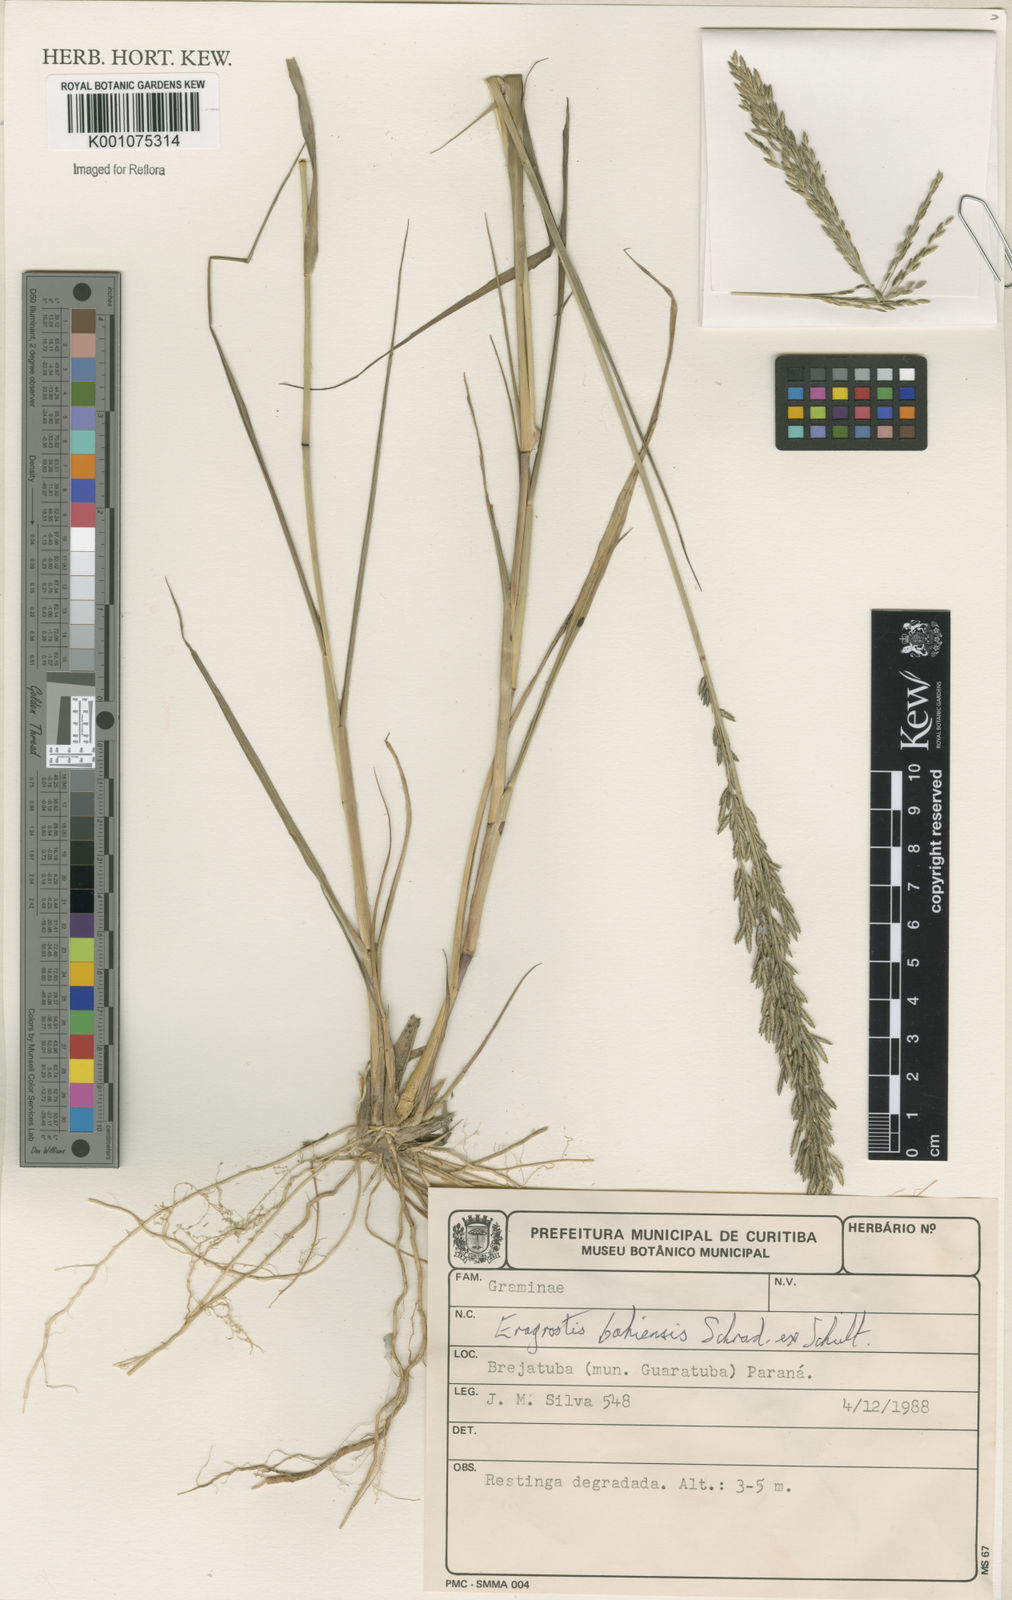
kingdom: Plantae
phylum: Tracheophyta
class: Liliopsida
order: Poales
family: Poaceae
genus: Eragrostis
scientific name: Eragrostis bahiensis
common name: Bahia lovegrass
